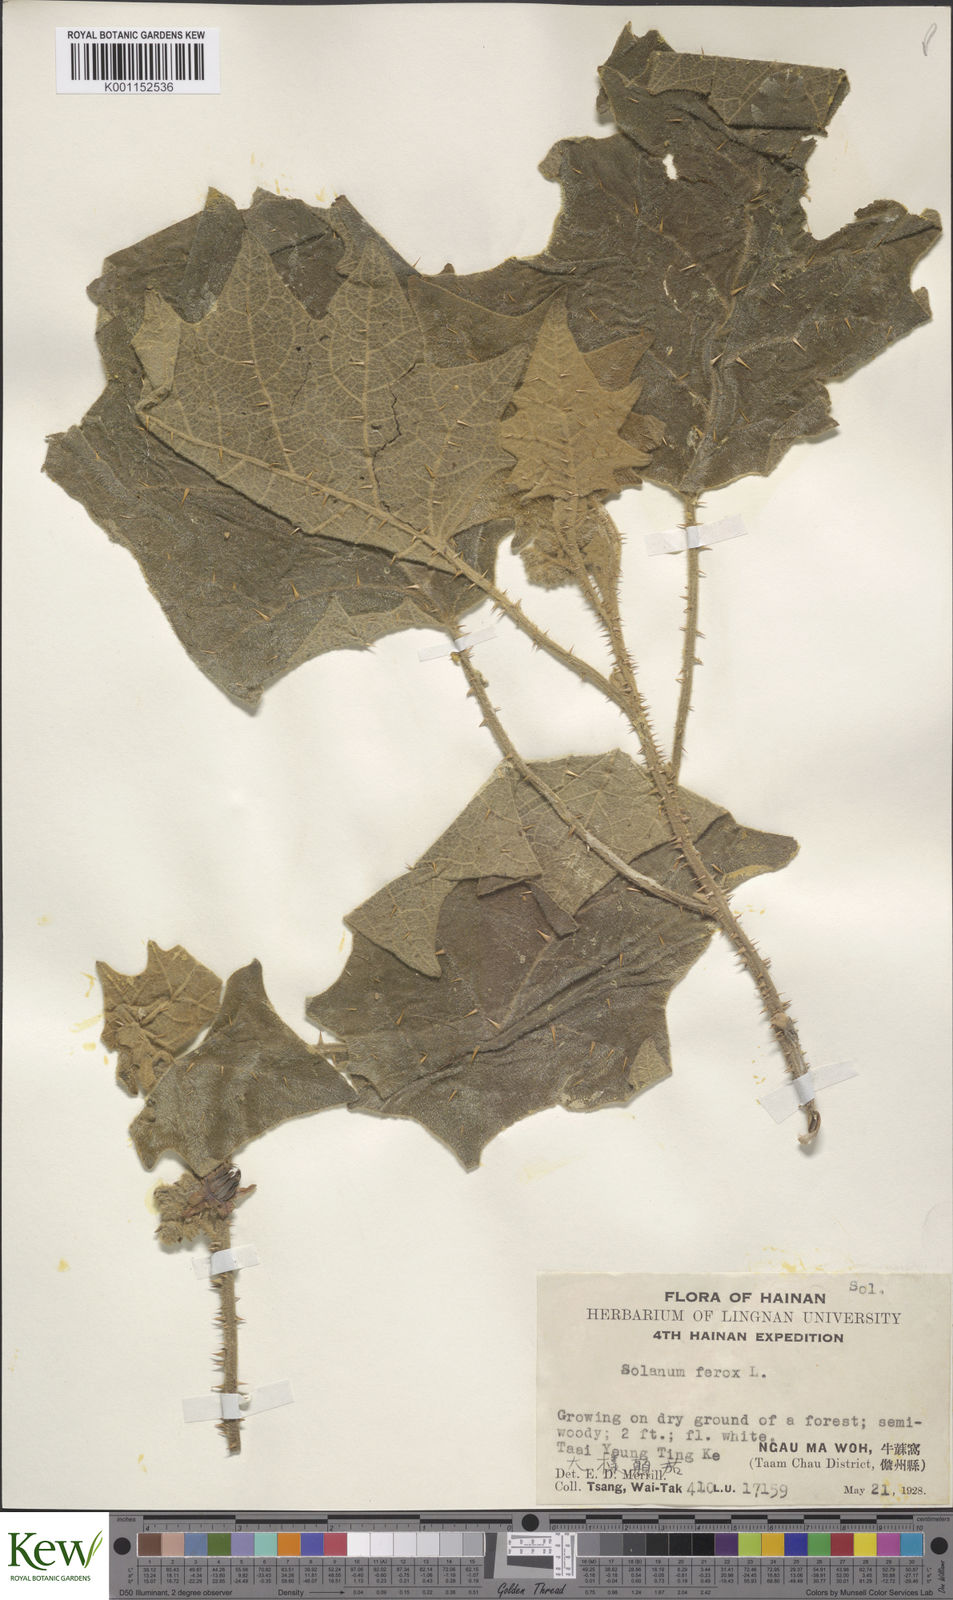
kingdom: Plantae
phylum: Tracheophyta
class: Magnoliopsida
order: Solanales
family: Solanaceae
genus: Solanum
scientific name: Solanum lasiocarpum
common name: Indian nightshade
